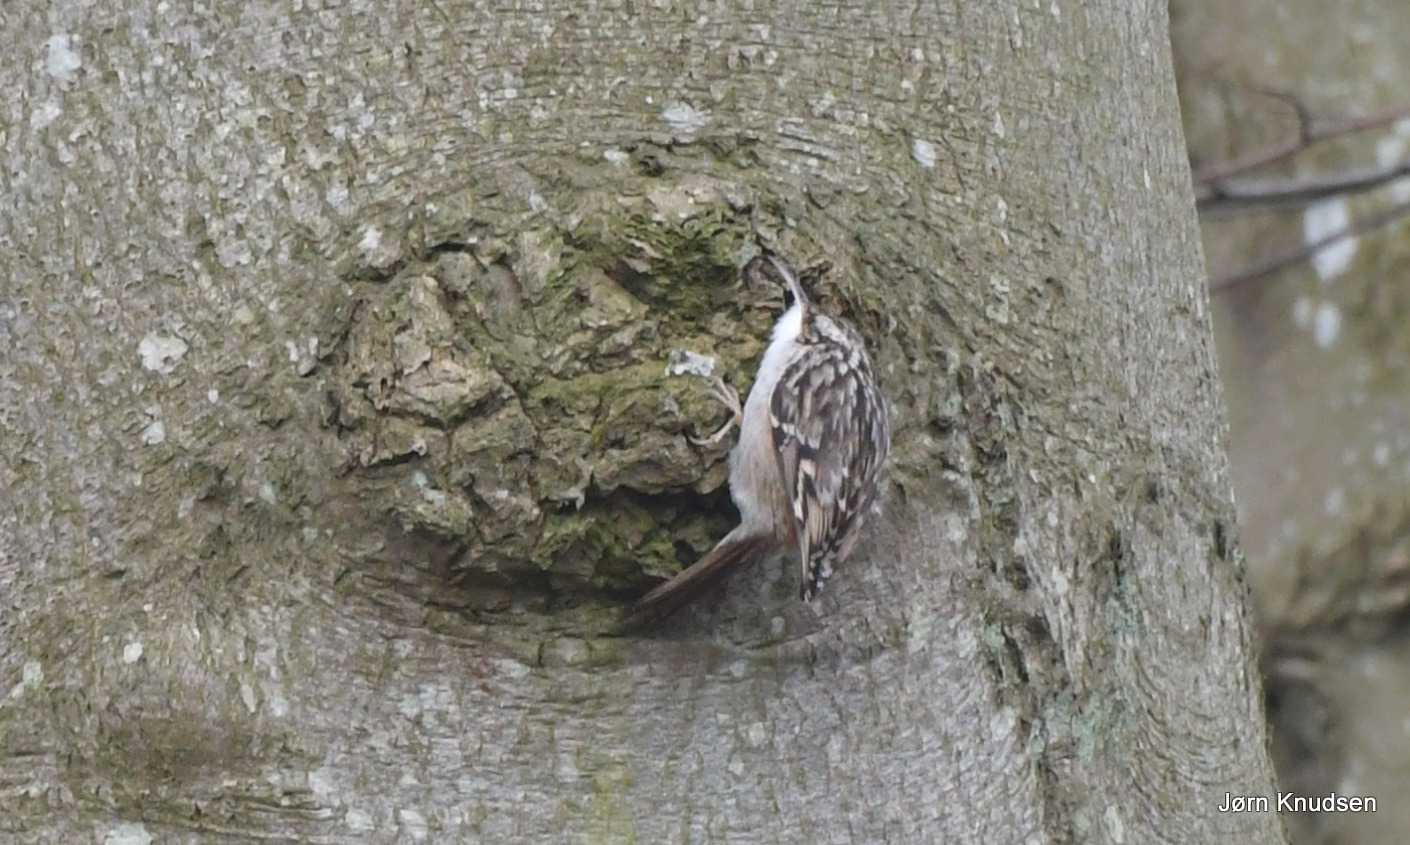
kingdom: Animalia
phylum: Chordata
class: Aves
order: Passeriformes
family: Certhiidae
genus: Certhia
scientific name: Certhia brachydactyla
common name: Korttået træløber
